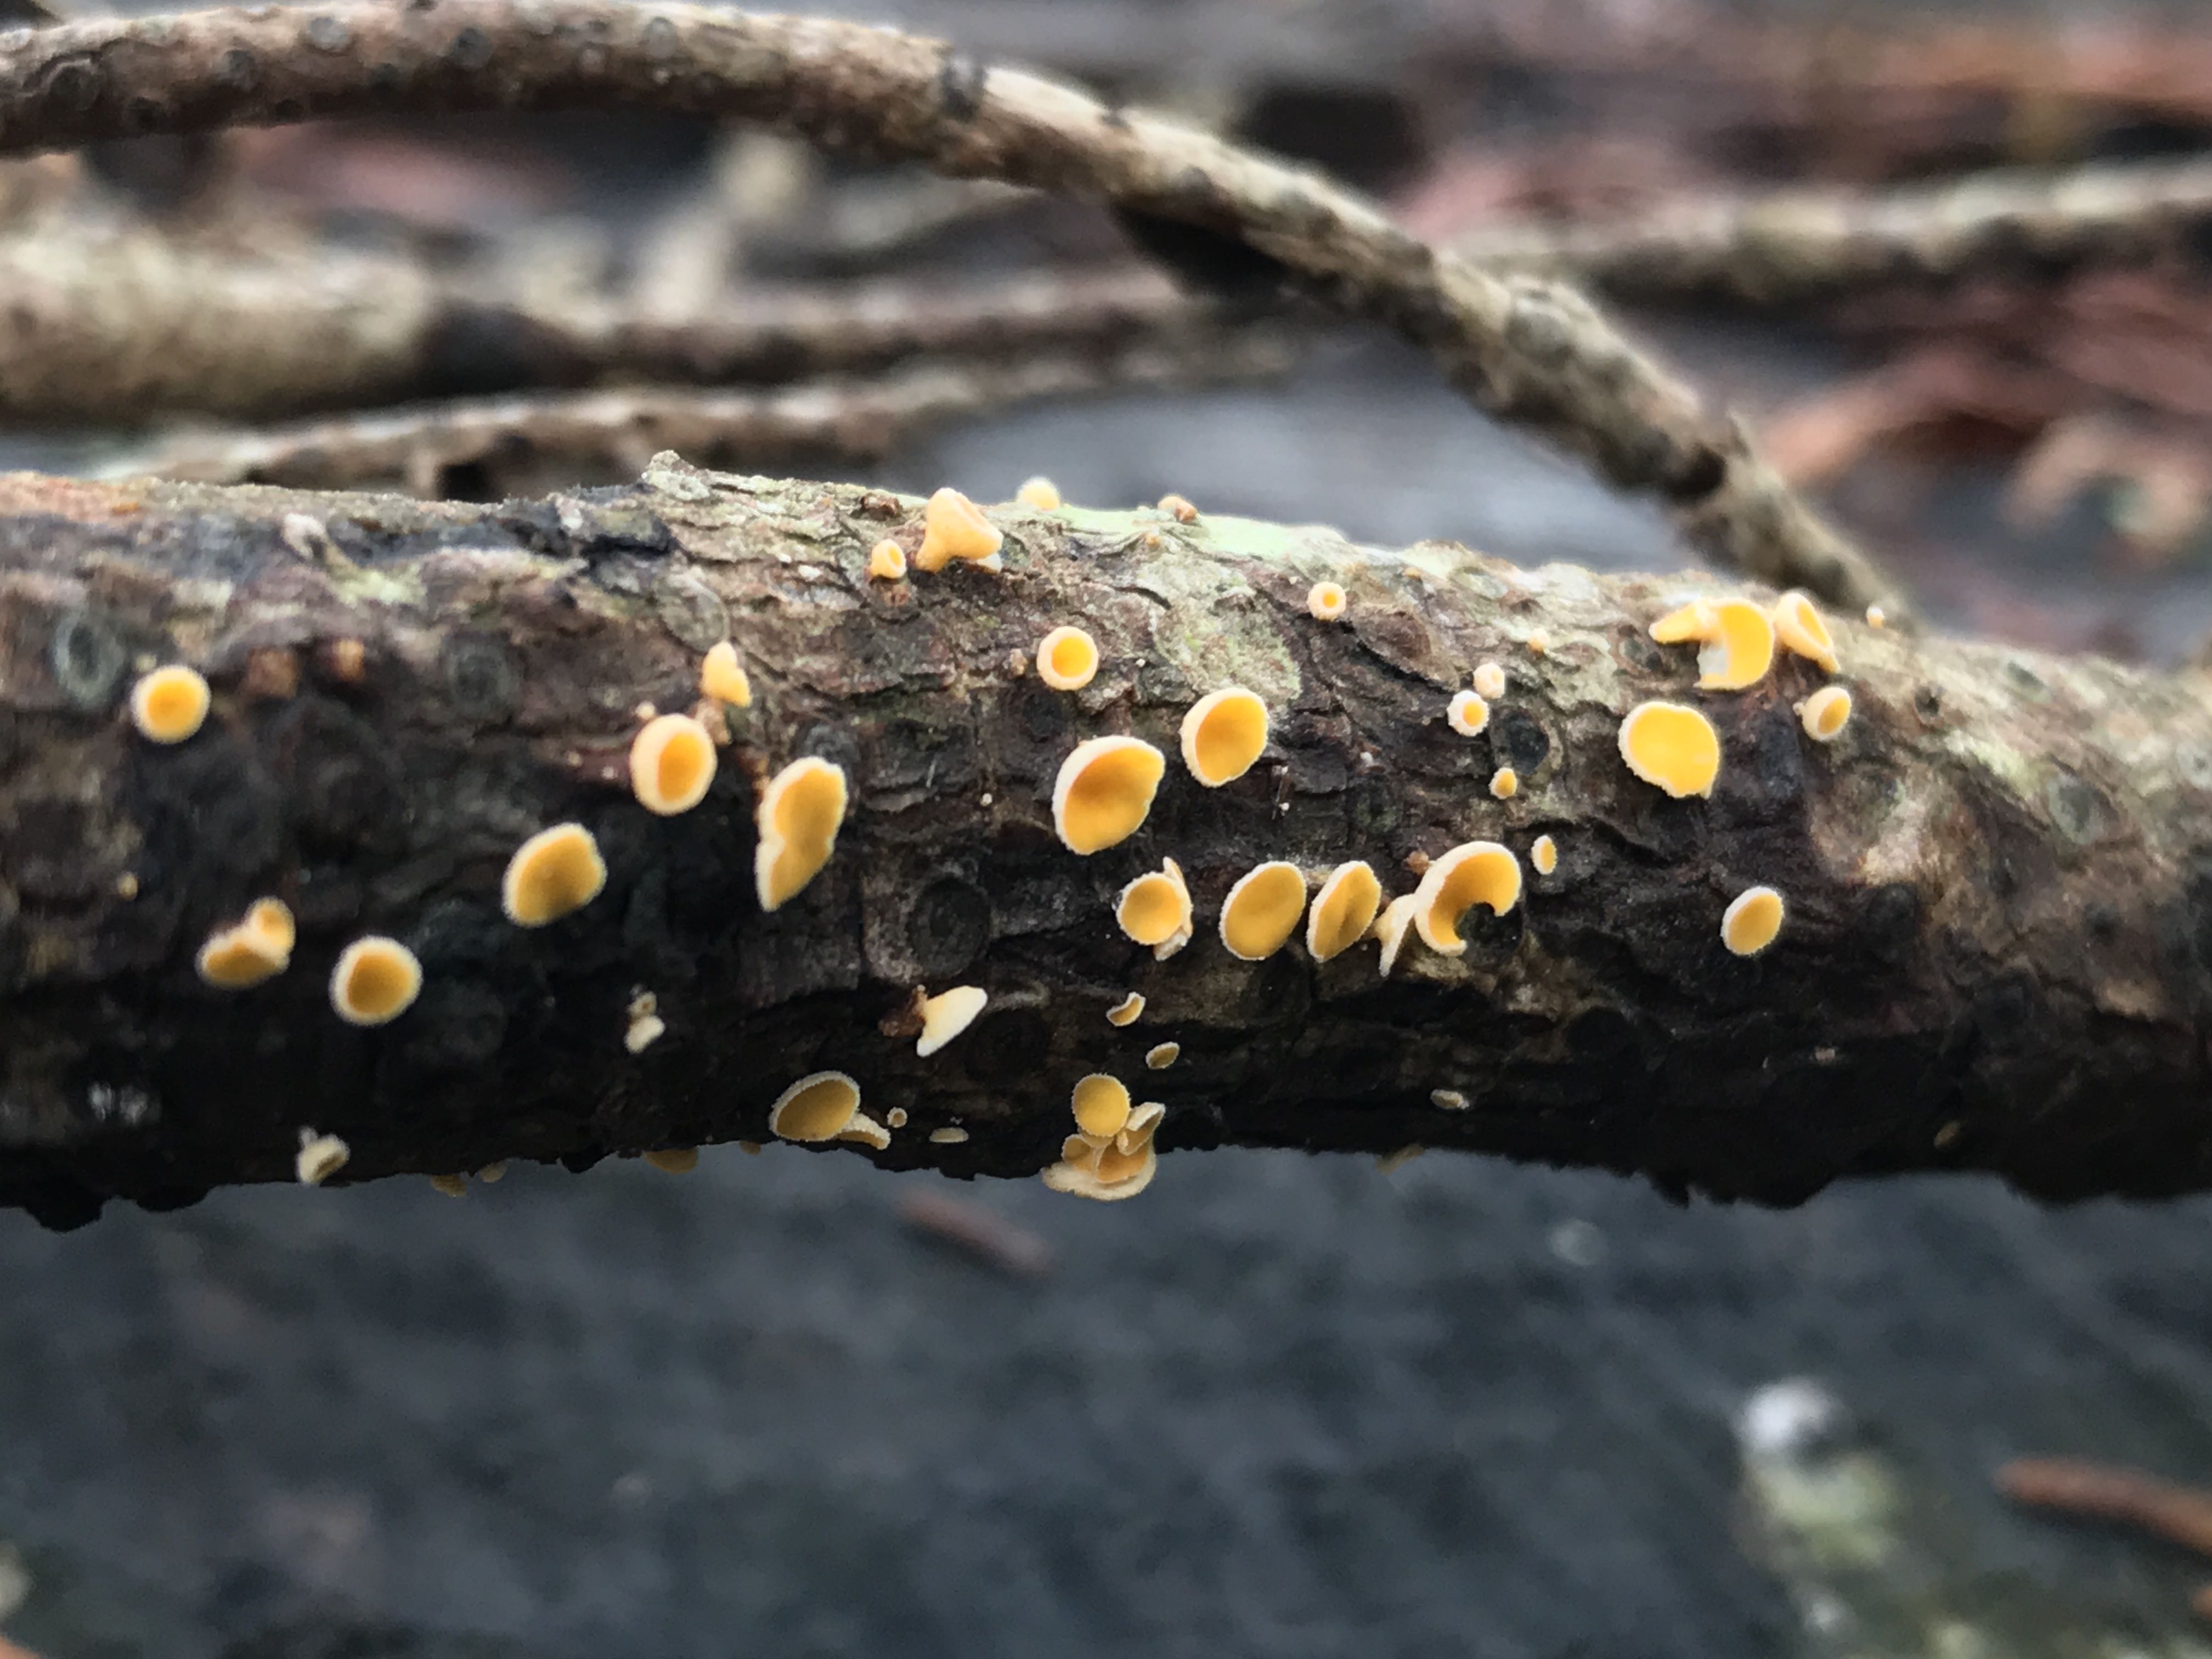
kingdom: Fungi
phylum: Ascomycota
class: Leotiomycetes
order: Helotiales
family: Lachnaceae
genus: Lachnellula
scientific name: Lachnellula
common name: frynseskive
